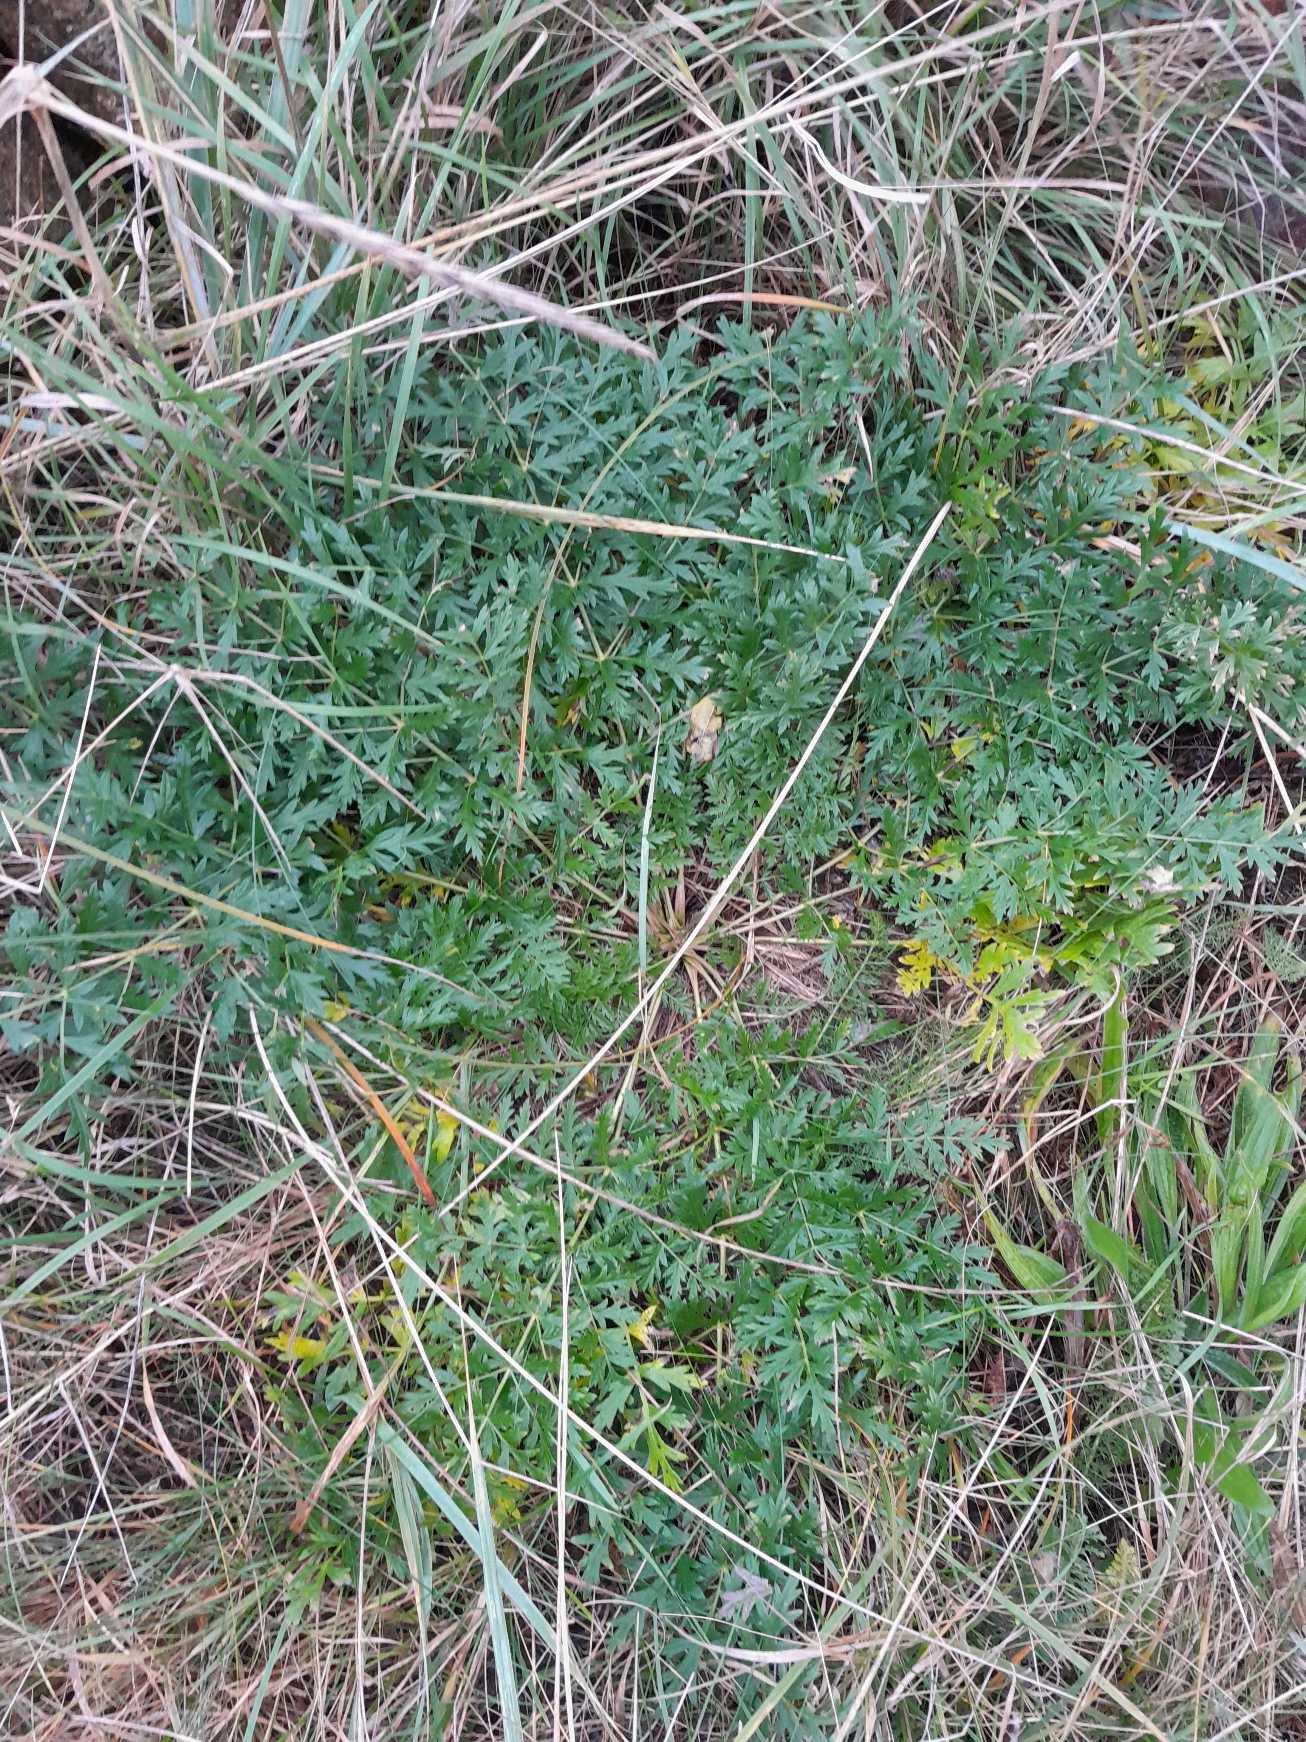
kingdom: Plantae
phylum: Tracheophyta
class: Magnoliopsida
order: Apiales
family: Apiaceae
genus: Seseli
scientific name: Seseli libanotis
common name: Hjorterod
